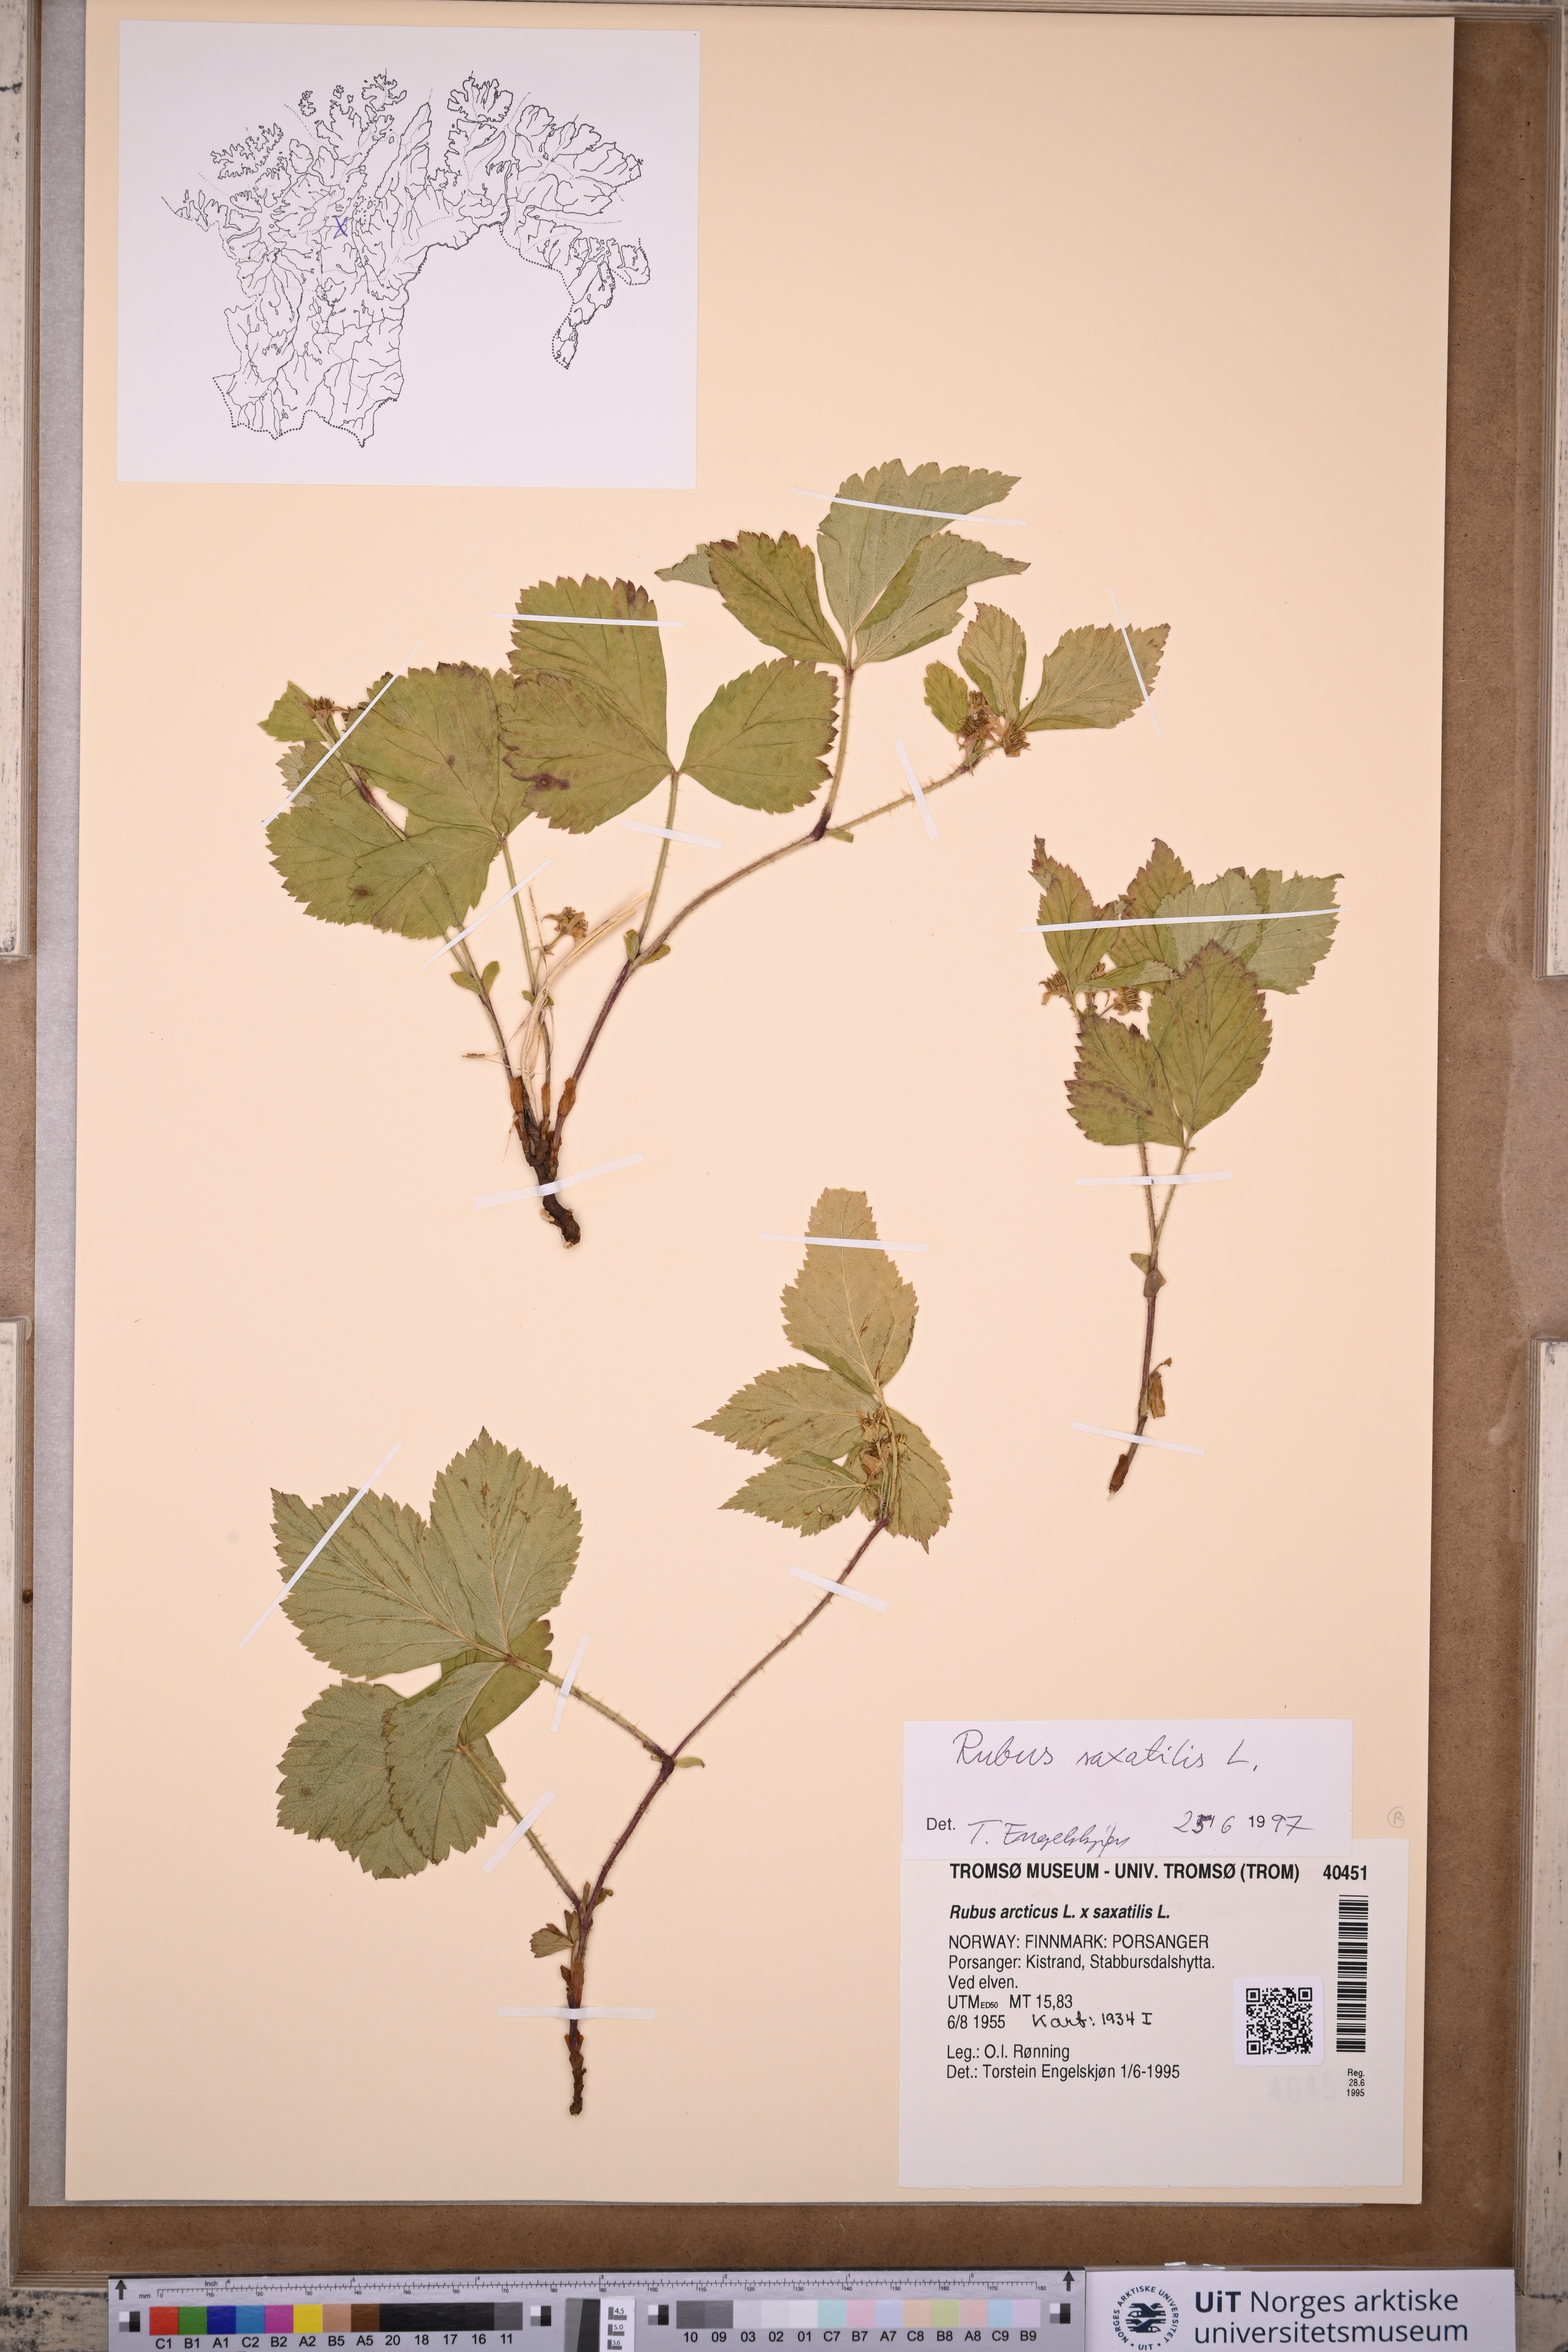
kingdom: Plantae
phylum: Tracheophyta
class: Magnoliopsida
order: Rosales
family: Rosaceae
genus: Rubus
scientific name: Rubus saxatilis
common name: Stone bramble
